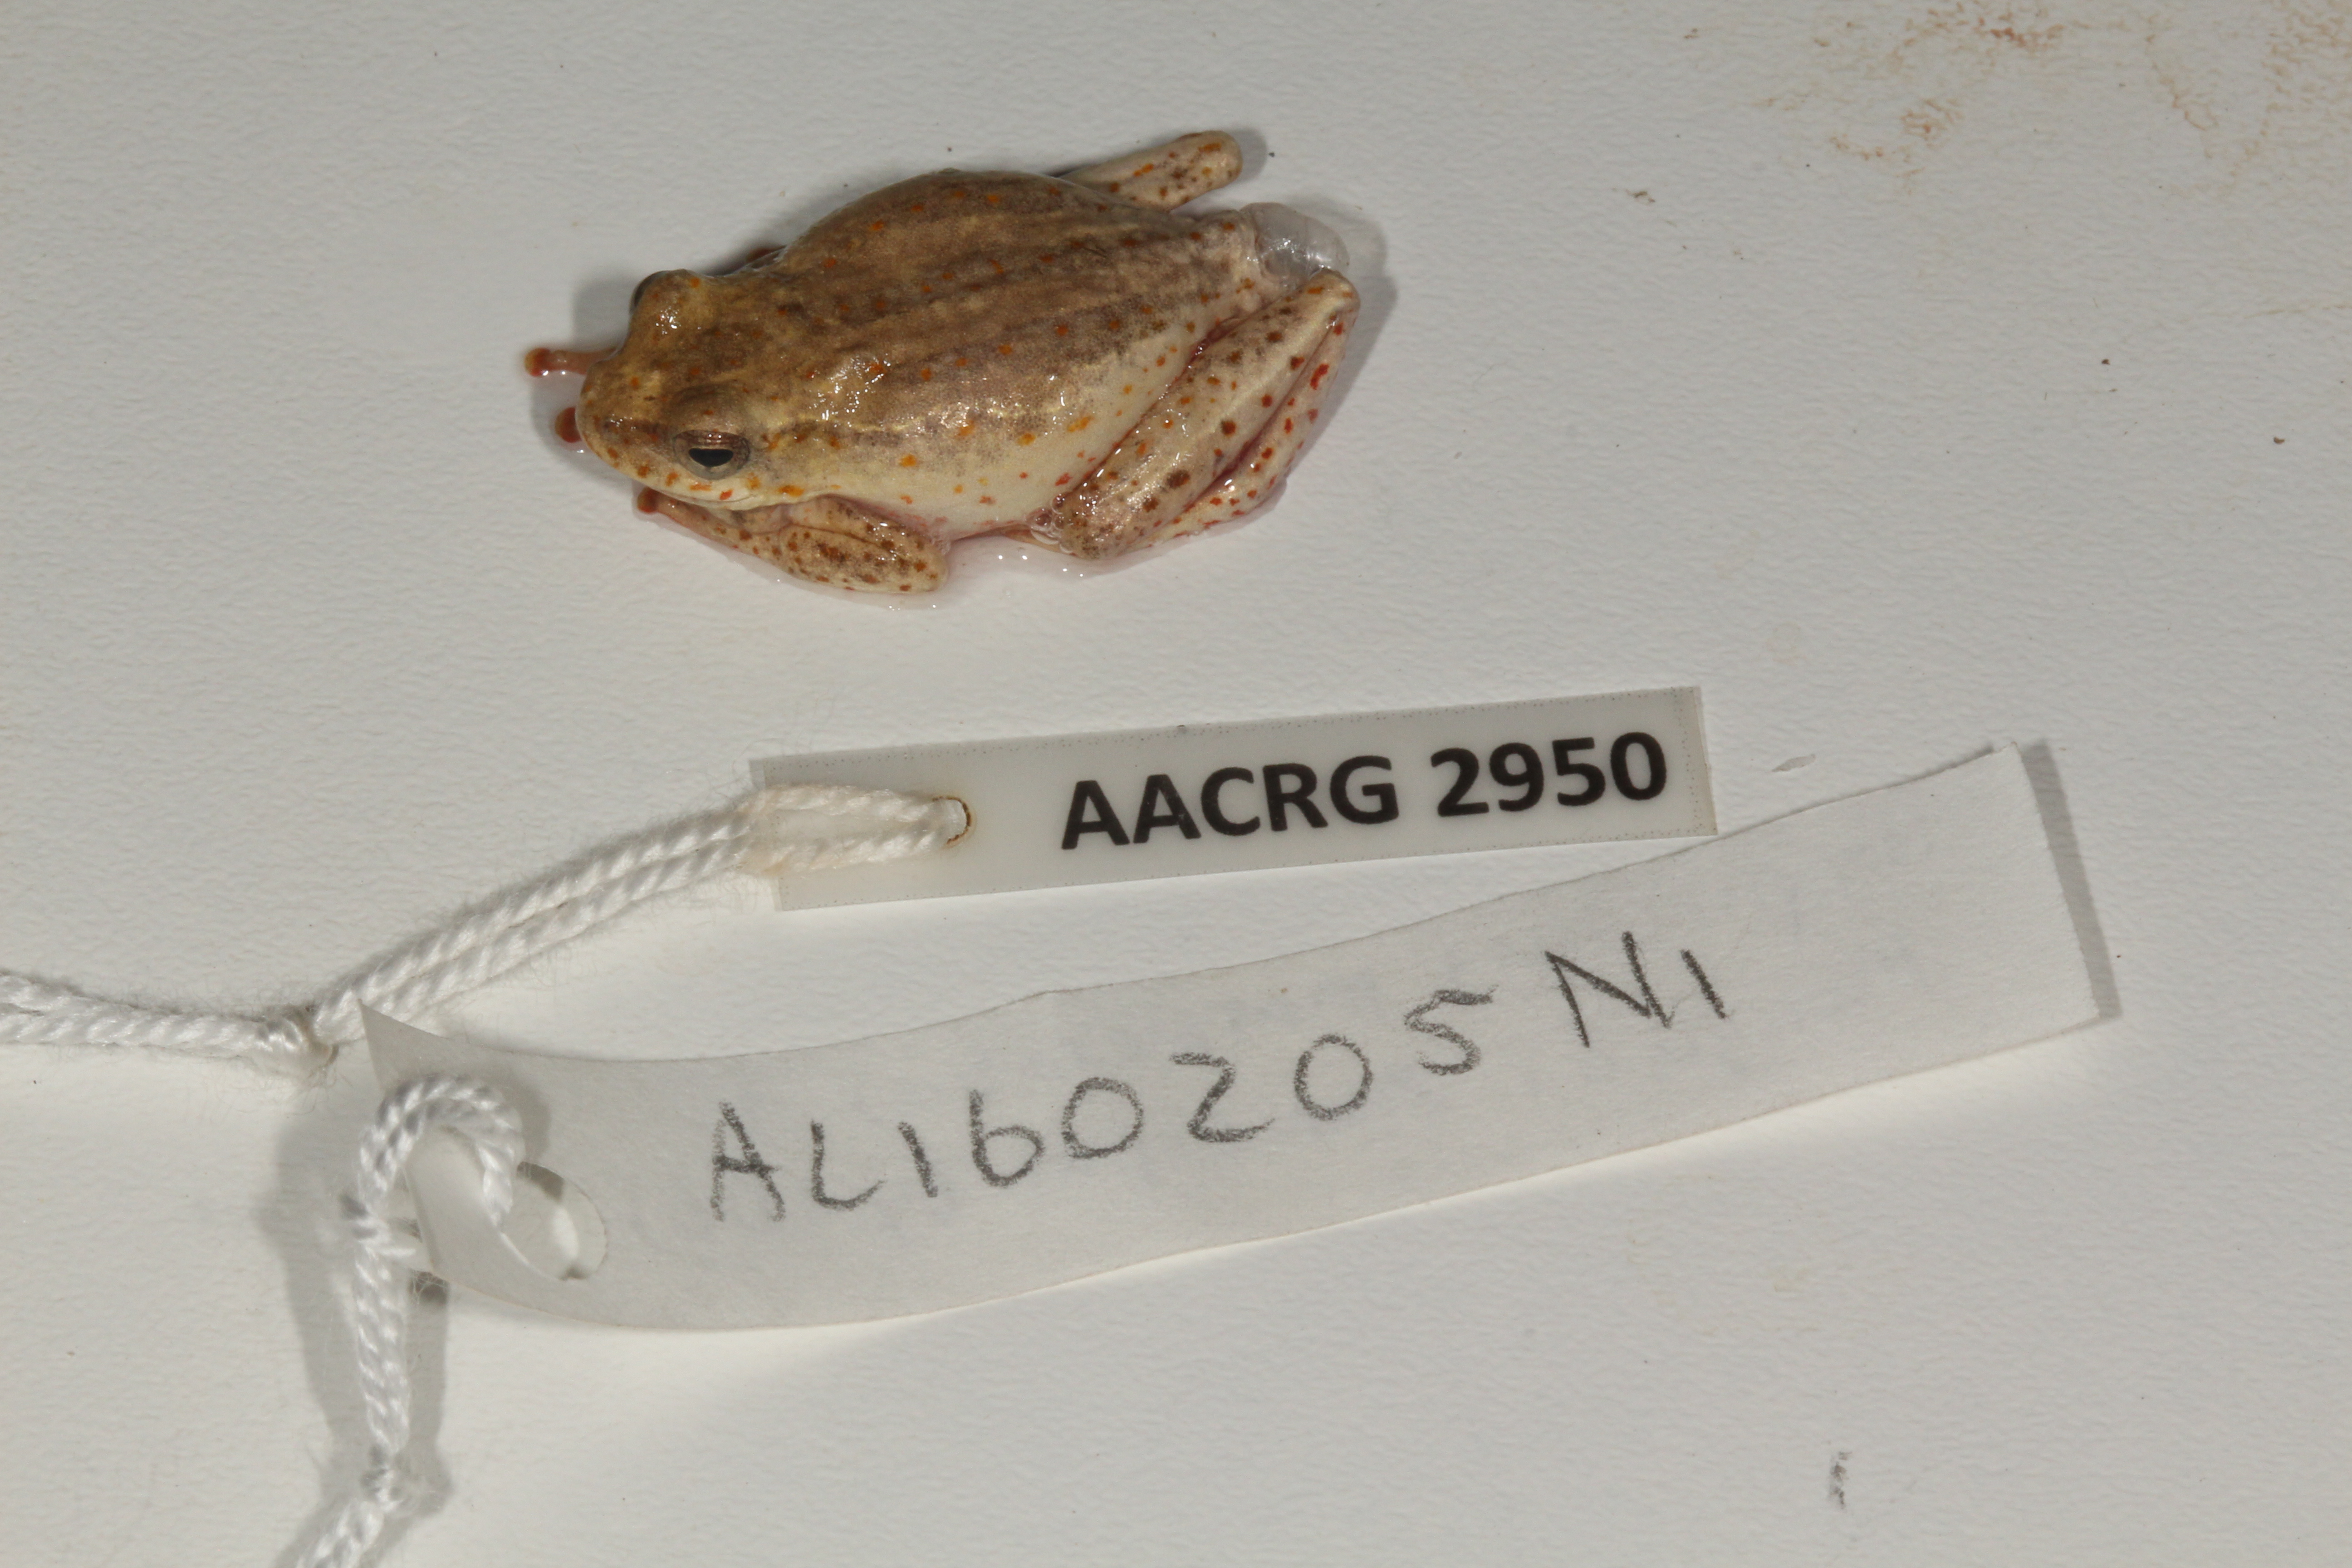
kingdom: Animalia
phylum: Chordata
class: Amphibia
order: Anura
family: Hyperoliidae
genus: Hyperolius
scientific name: Hyperolius marmoratus
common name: Painted reed frog
